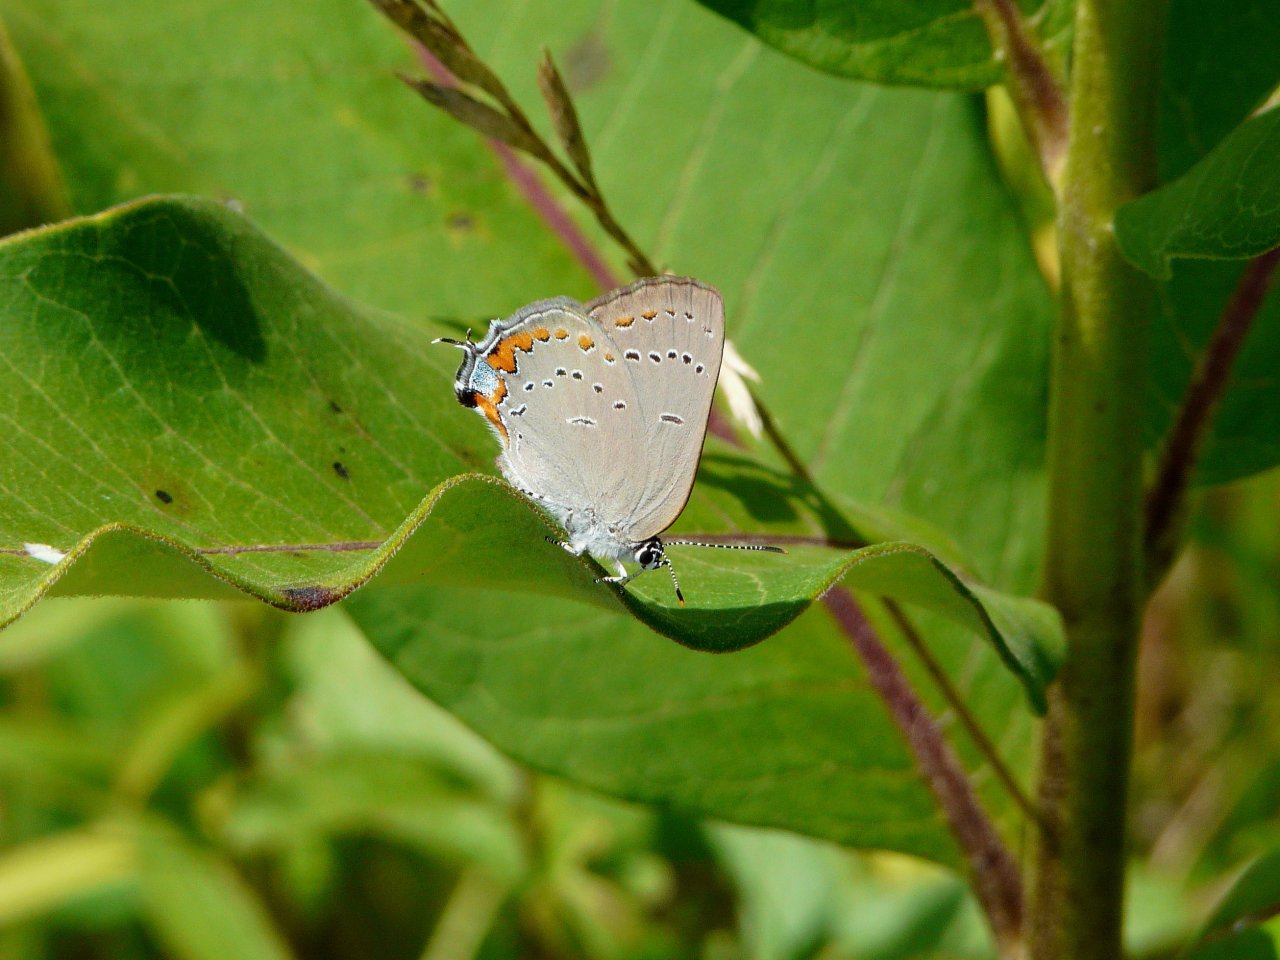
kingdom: Animalia
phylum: Arthropoda
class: Insecta
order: Lepidoptera
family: Lycaenidae
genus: Strymon
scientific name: Strymon acadica
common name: Acadian Hairstreak
